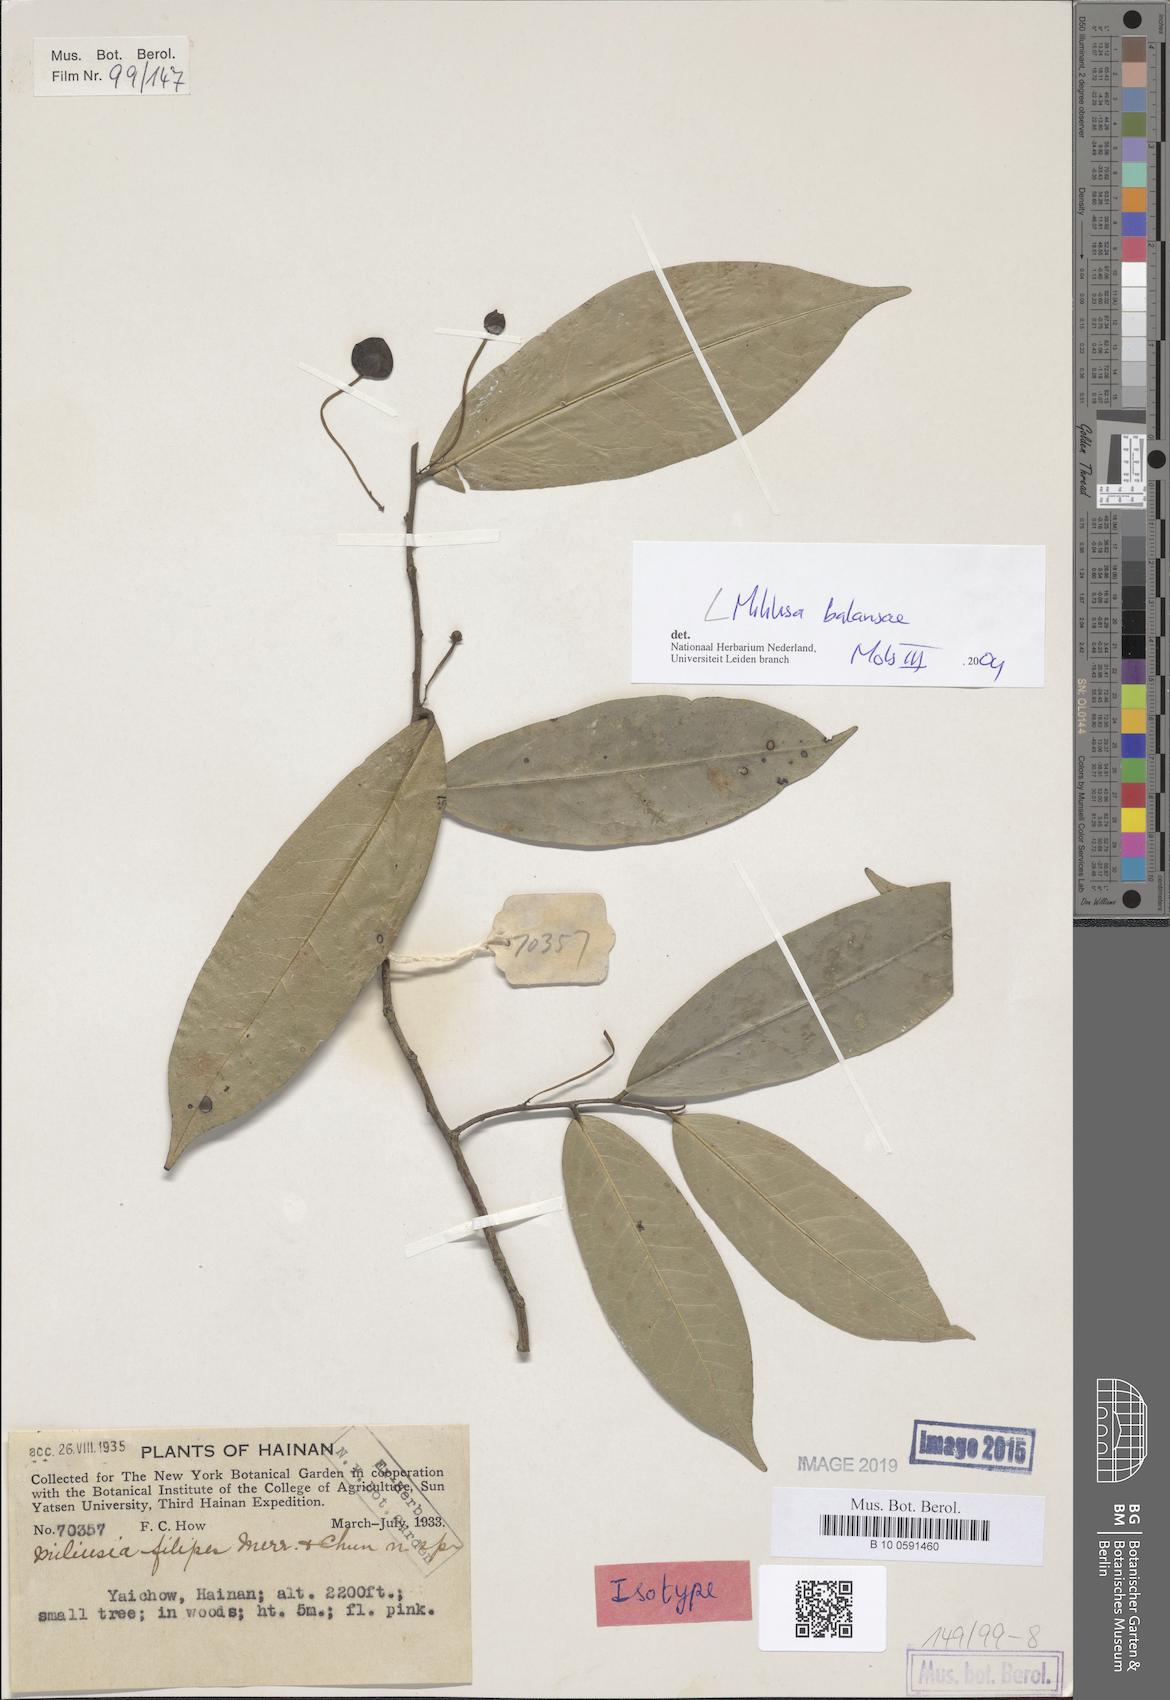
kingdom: Plantae
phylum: Tracheophyta
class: Magnoliopsida
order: Magnoliales
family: Annonaceae
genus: Miliusa
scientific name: Miliusa balansae
